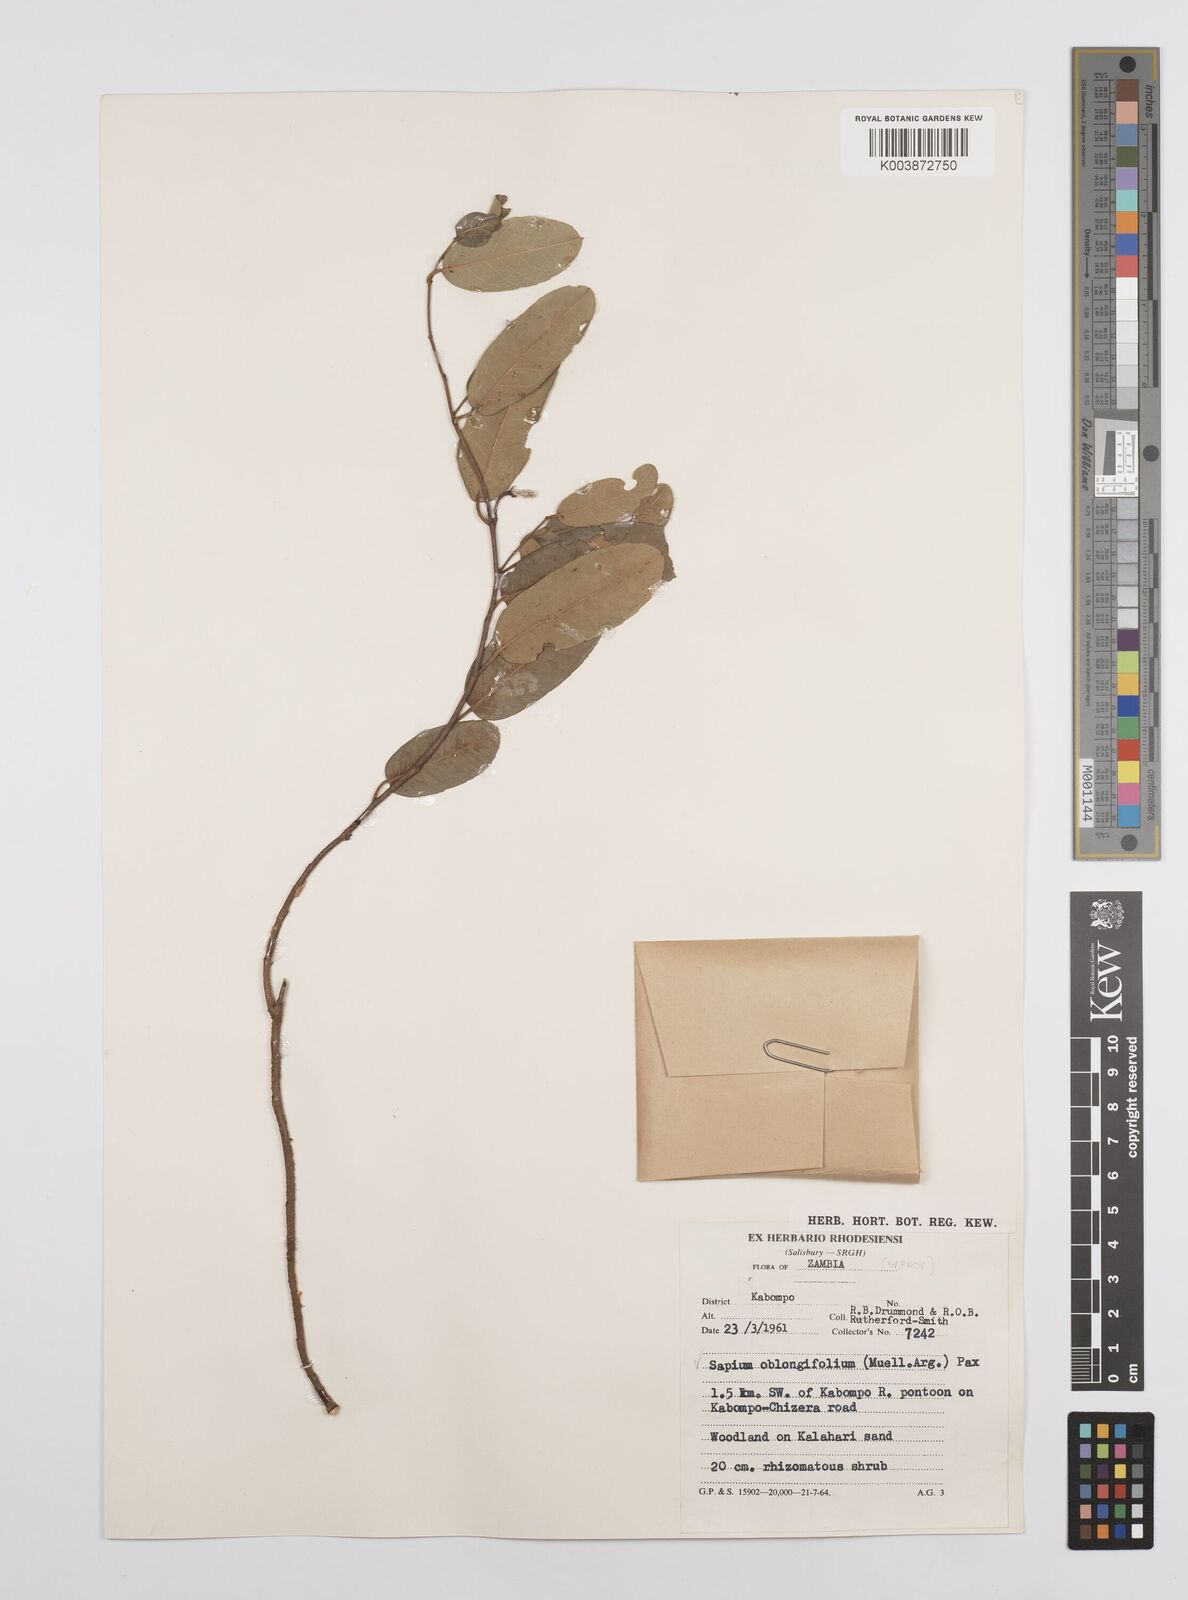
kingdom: Plantae
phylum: Tracheophyta
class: Magnoliopsida
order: Malpighiales
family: Euphorbiaceae
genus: Sclerocroton
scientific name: Sclerocroton oblongifolius
